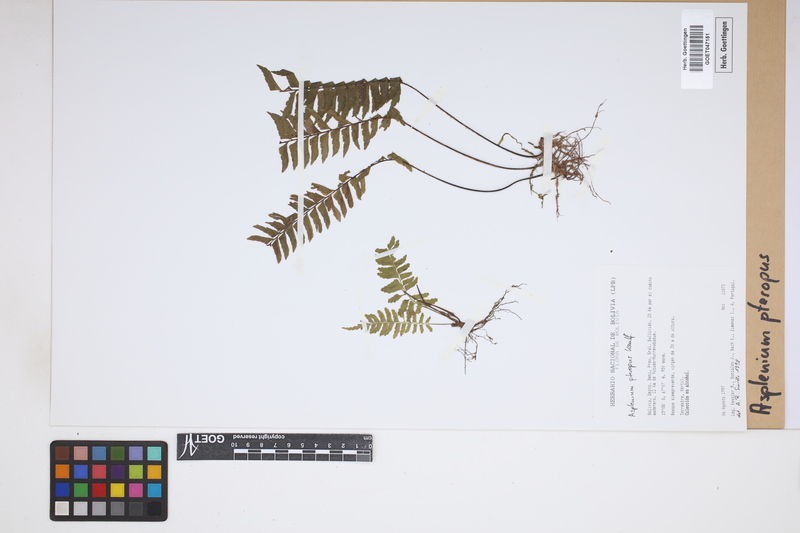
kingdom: Plantae
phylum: Tracheophyta
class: Polypodiopsida
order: Polypodiales
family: Aspleniaceae
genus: Asplenium
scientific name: Asplenium pteropus
